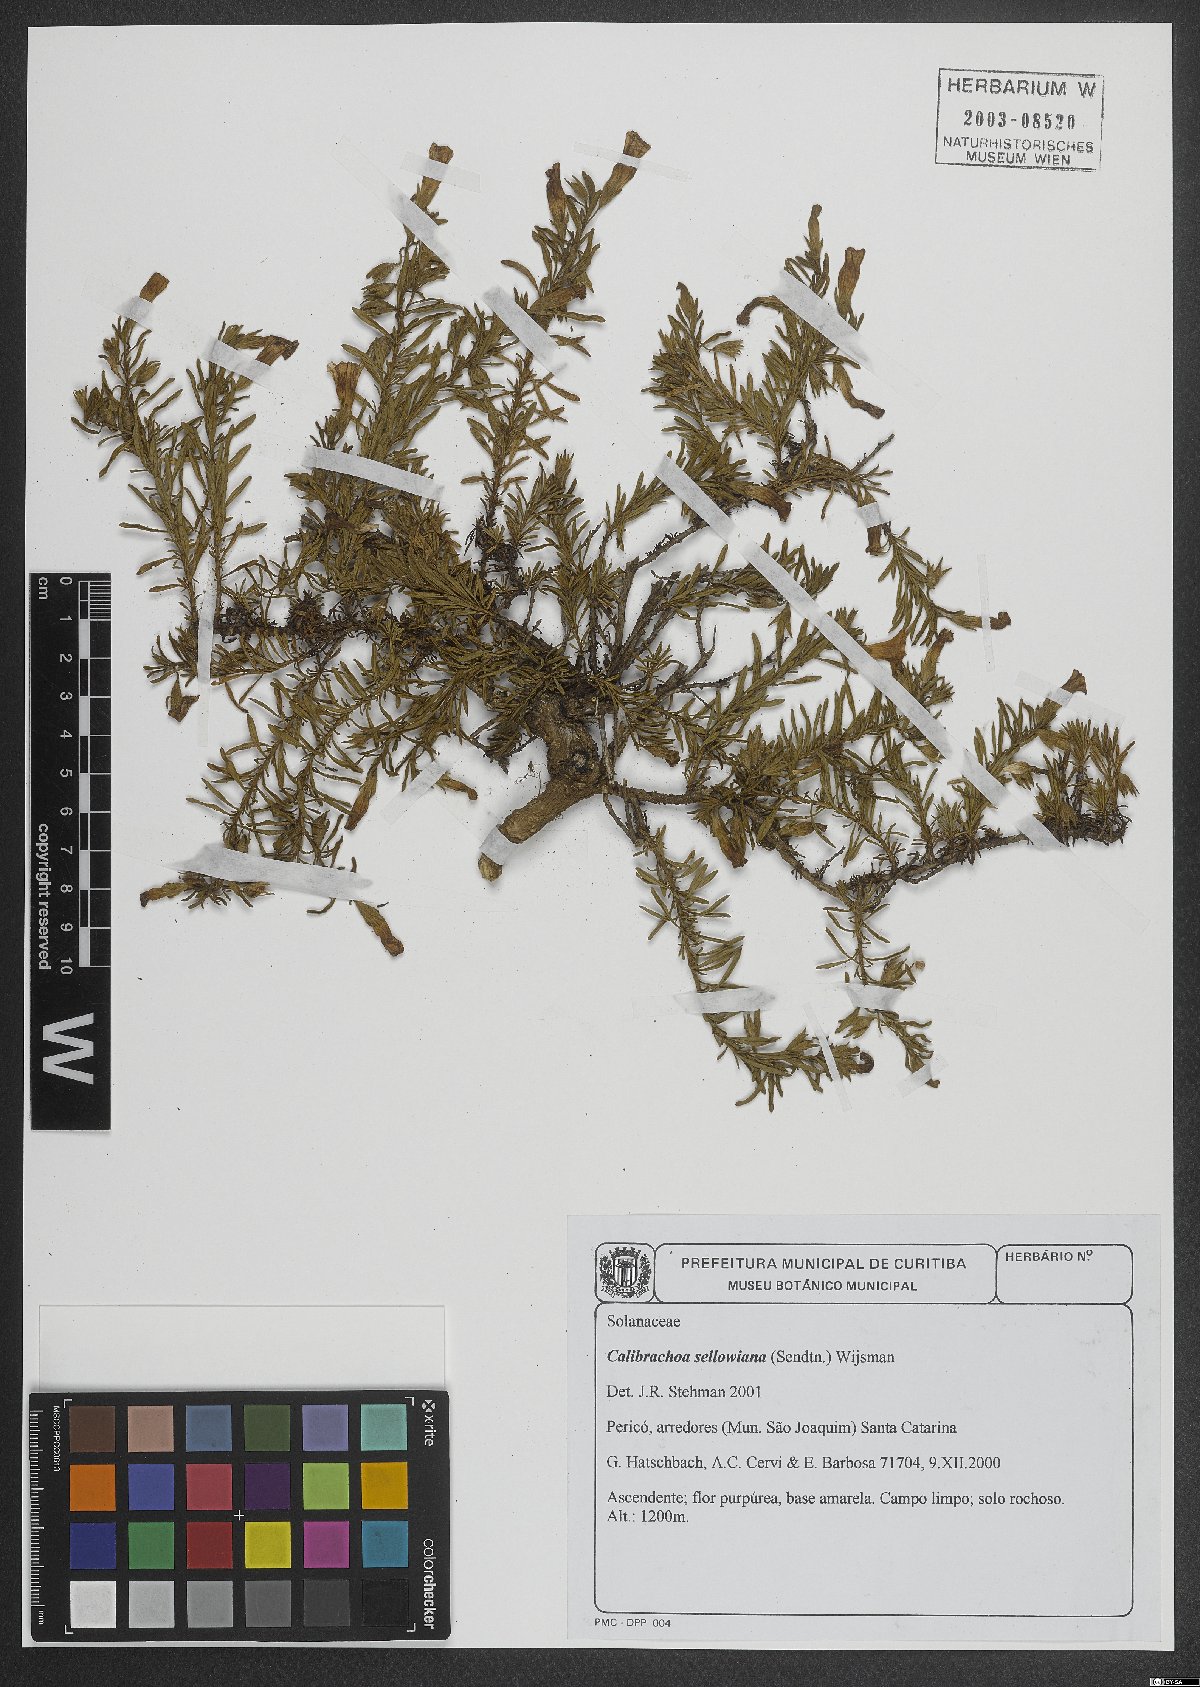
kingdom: Plantae
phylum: Tracheophyta
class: Magnoliopsida
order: Solanales
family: Solanaceae
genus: Calibrachoa
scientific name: Calibrachoa sellowiana
